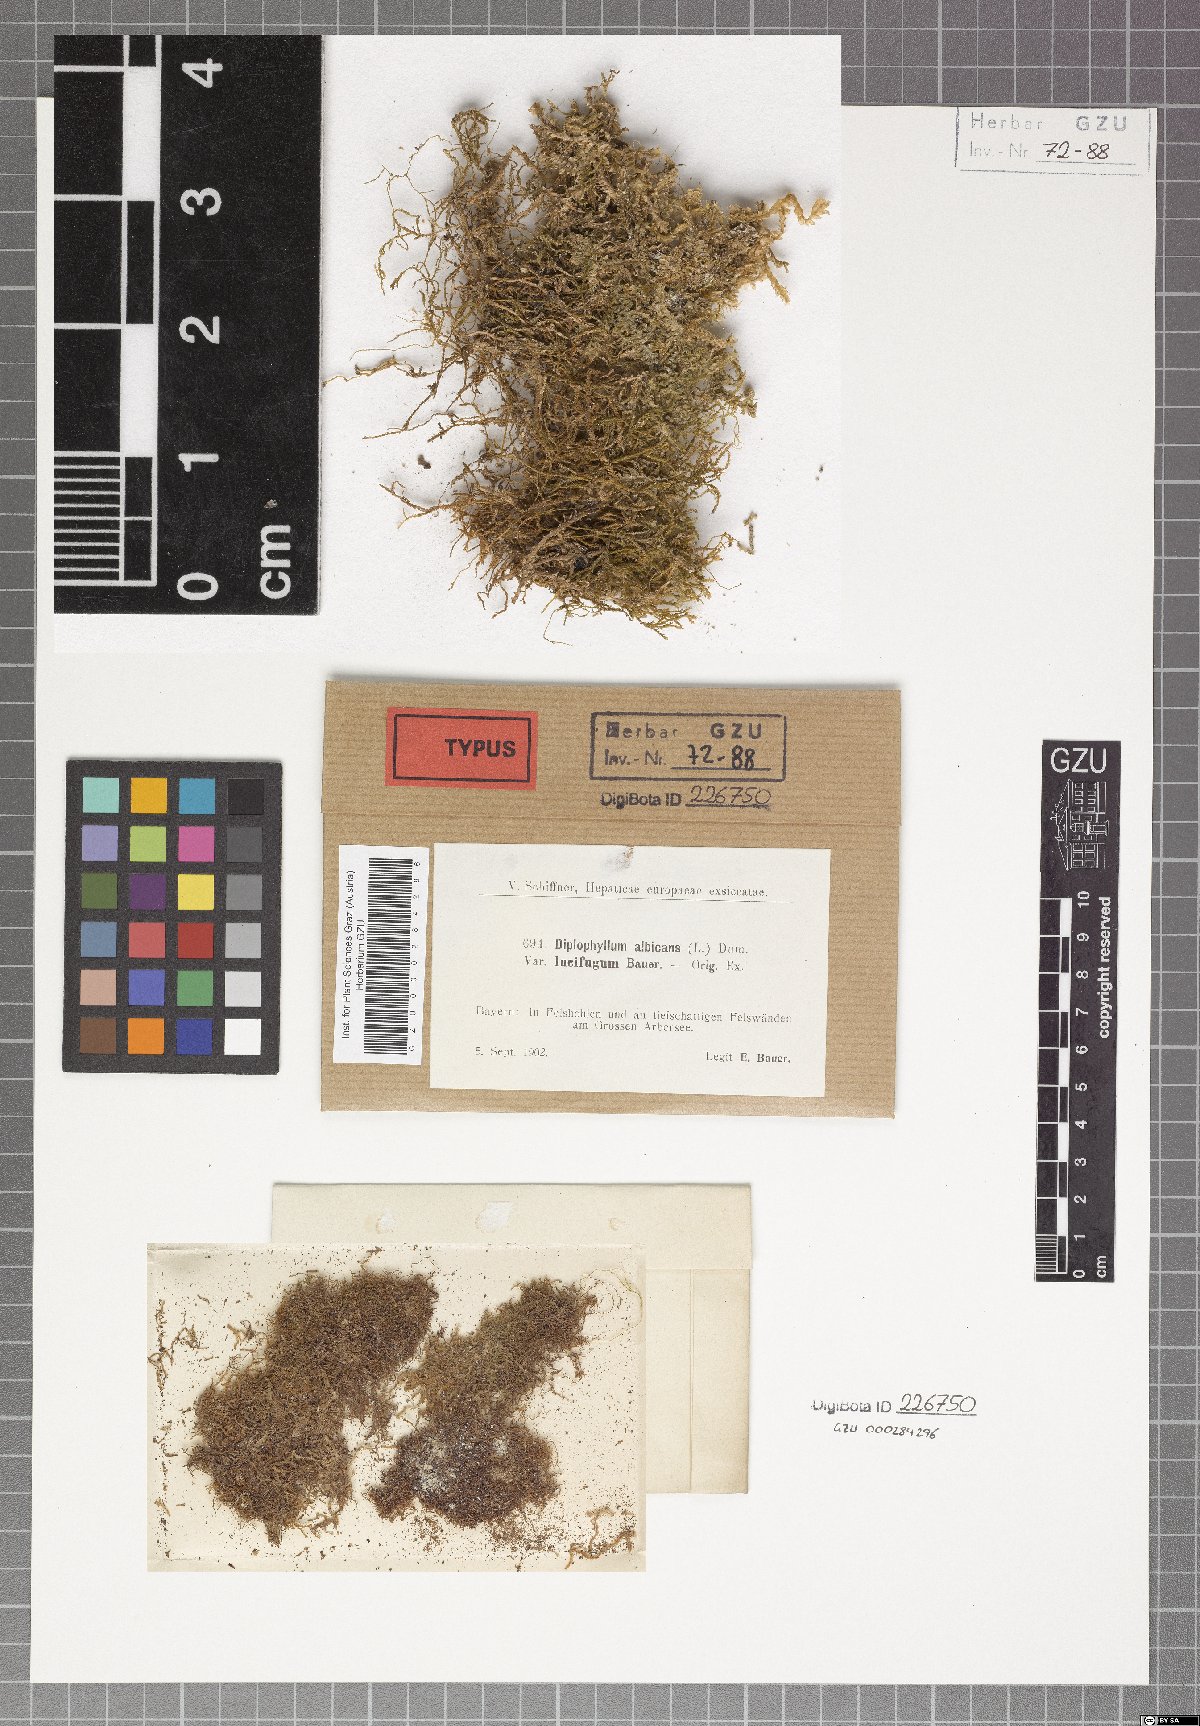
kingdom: Plantae
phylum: Marchantiophyta
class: Jungermanniopsida
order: Jungermanniales
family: Scapaniaceae
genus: Diplophyllum
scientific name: Diplophyllum albicans
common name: White earwort
